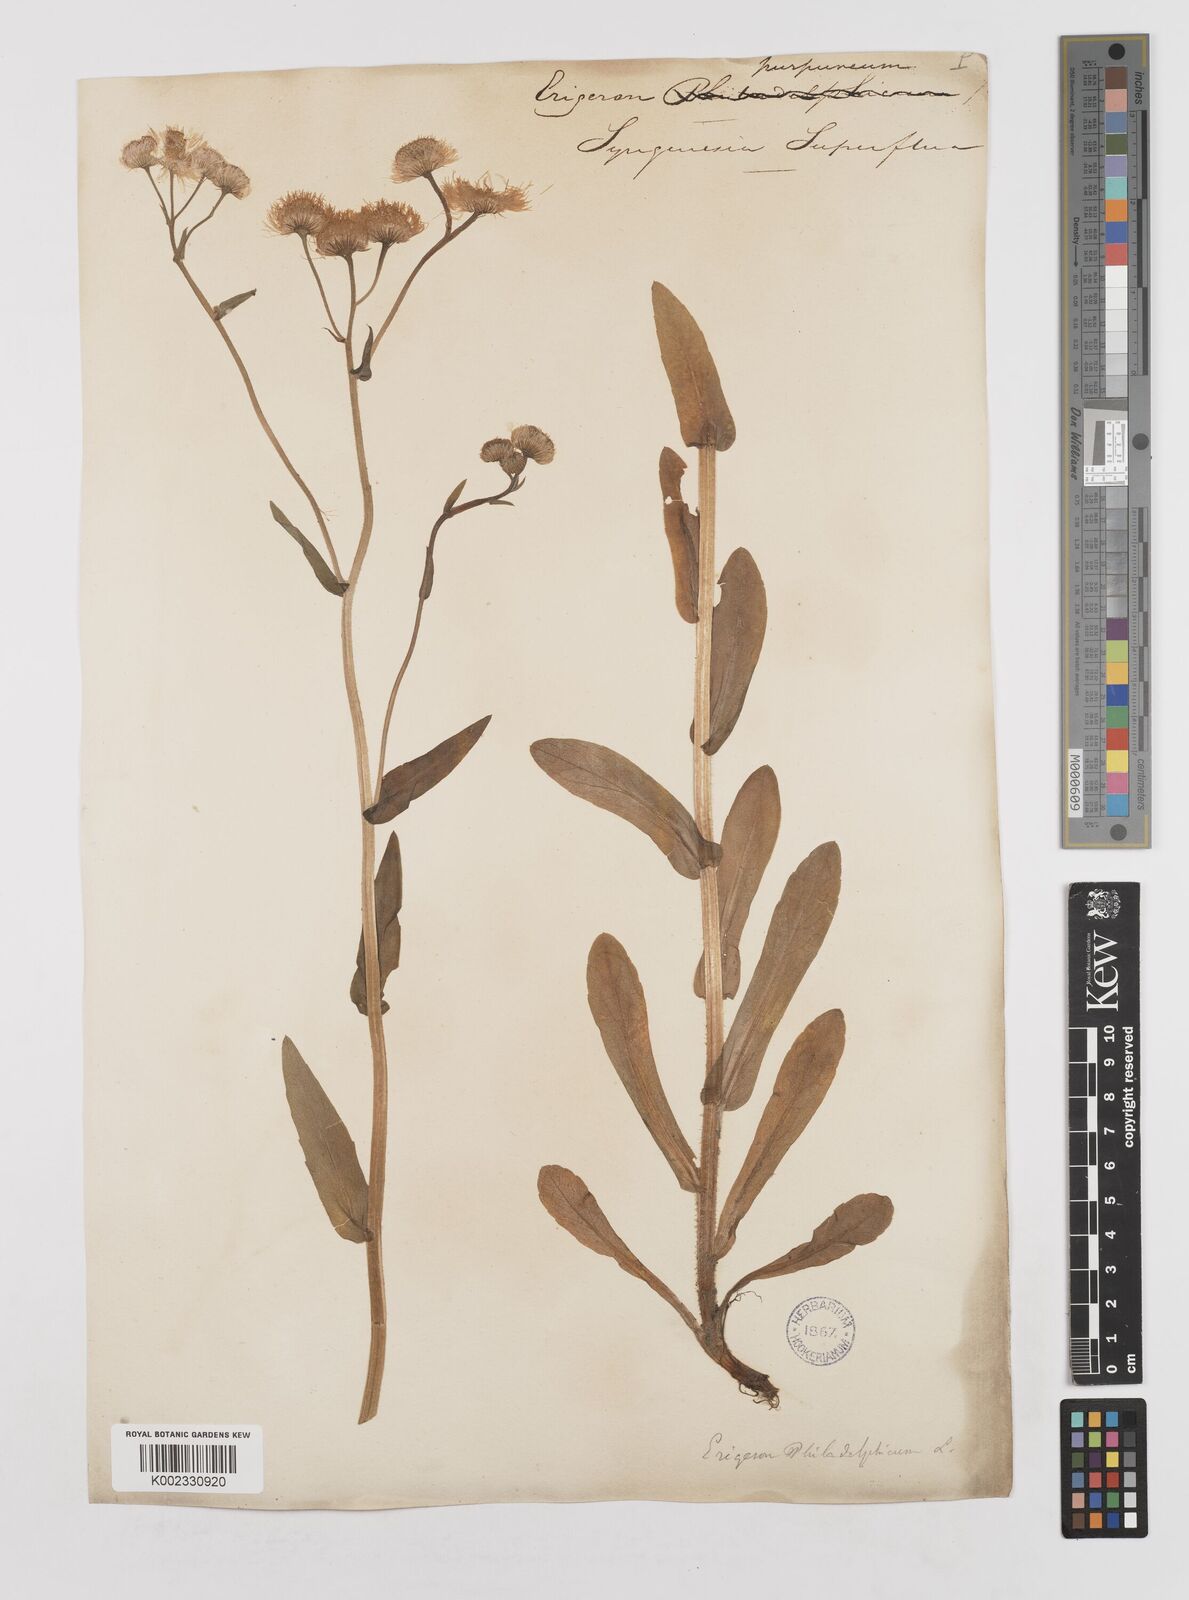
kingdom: Plantae
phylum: Tracheophyta
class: Magnoliopsida
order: Asterales
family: Asteraceae
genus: Erigeron
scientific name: Erigeron philadelphicus
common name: Robin's-plantain
